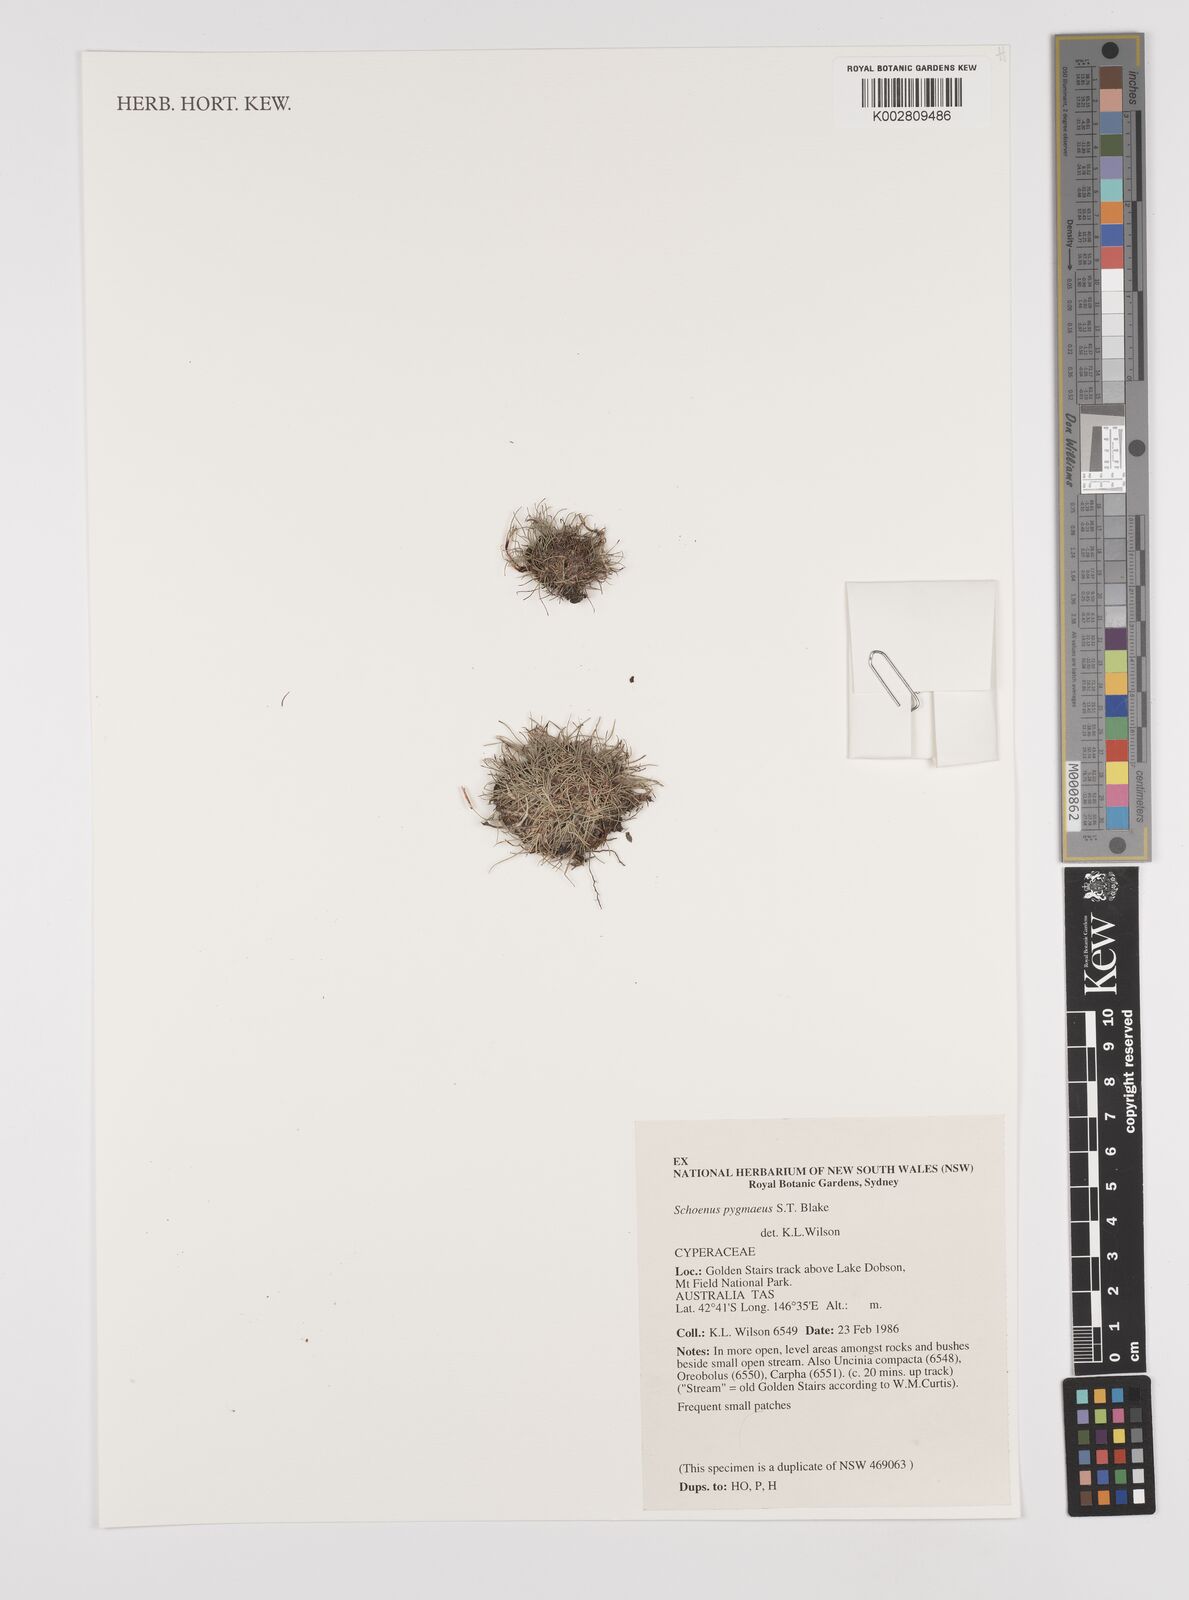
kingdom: Plantae
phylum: Tracheophyta
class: Liliopsida
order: Poales
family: Cyperaceae
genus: Schoenus
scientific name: Schoenus pygmaeus
